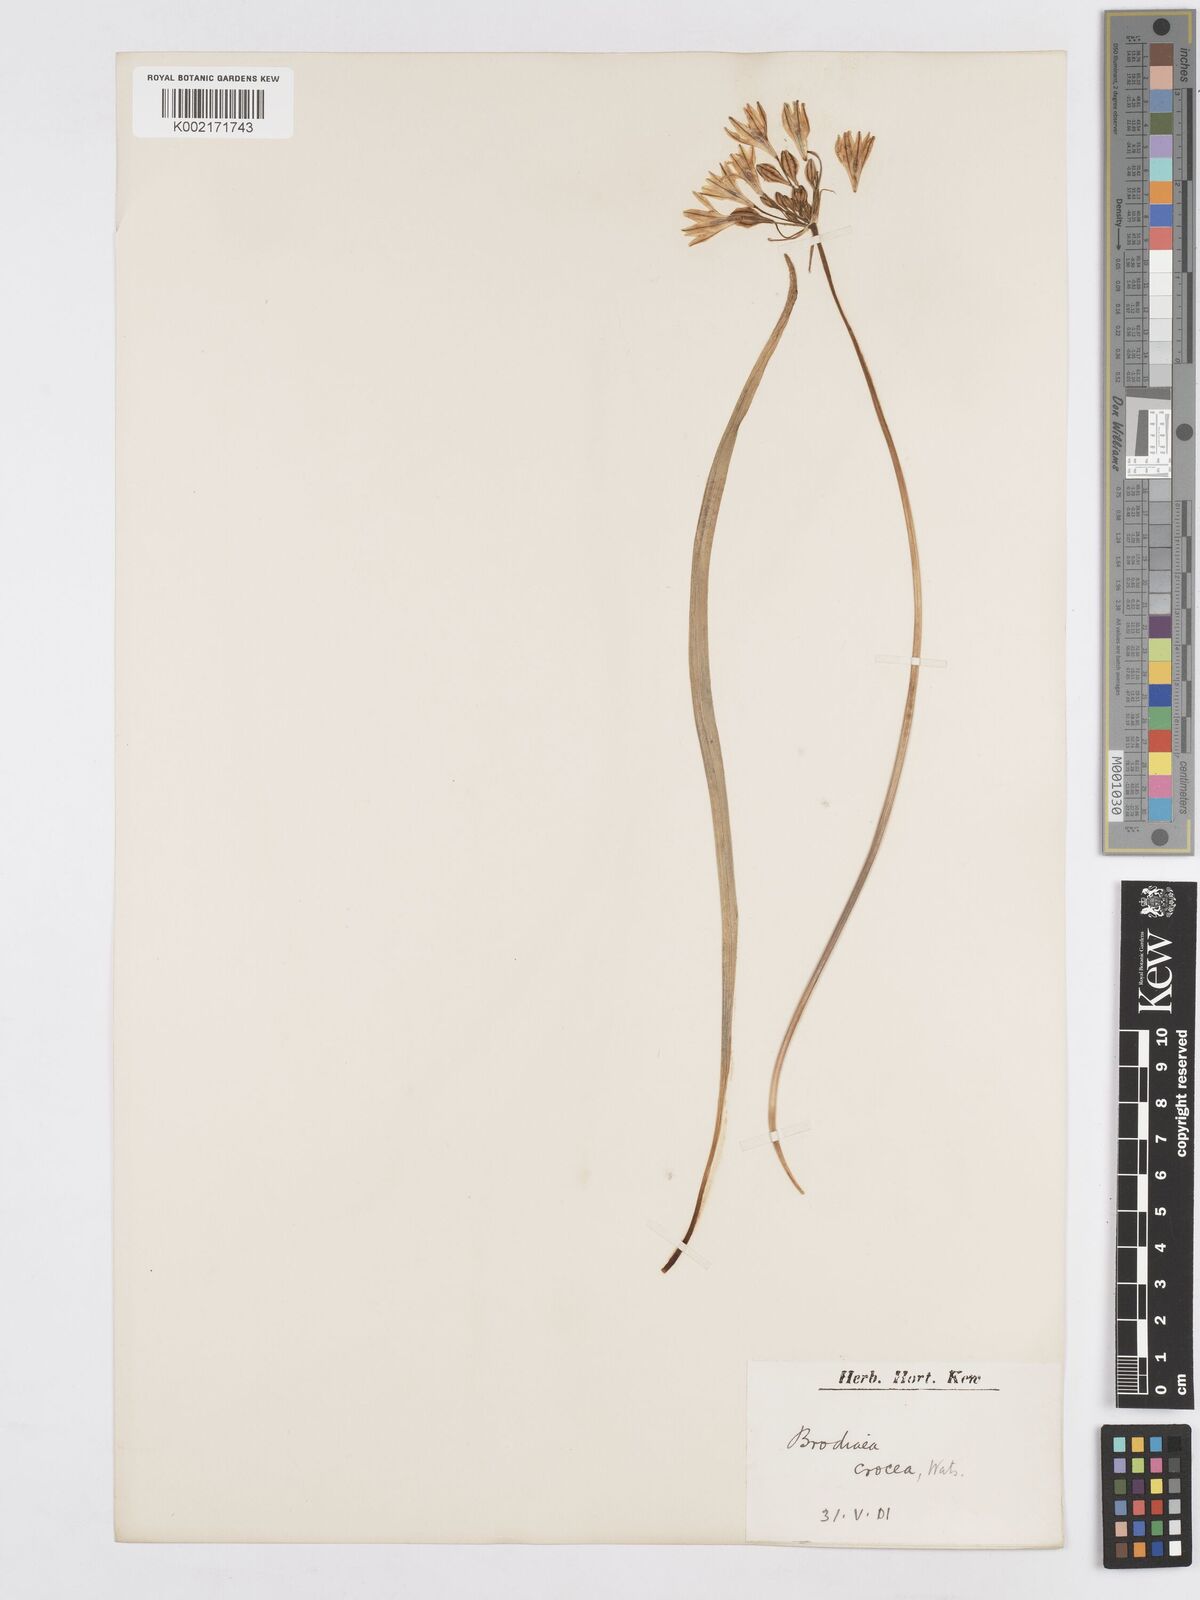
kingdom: Plantae
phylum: Tracheophyta
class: Liliopsida
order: Asparagales
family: Asparagaceae
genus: Triteleia
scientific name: Triteleia crocea
